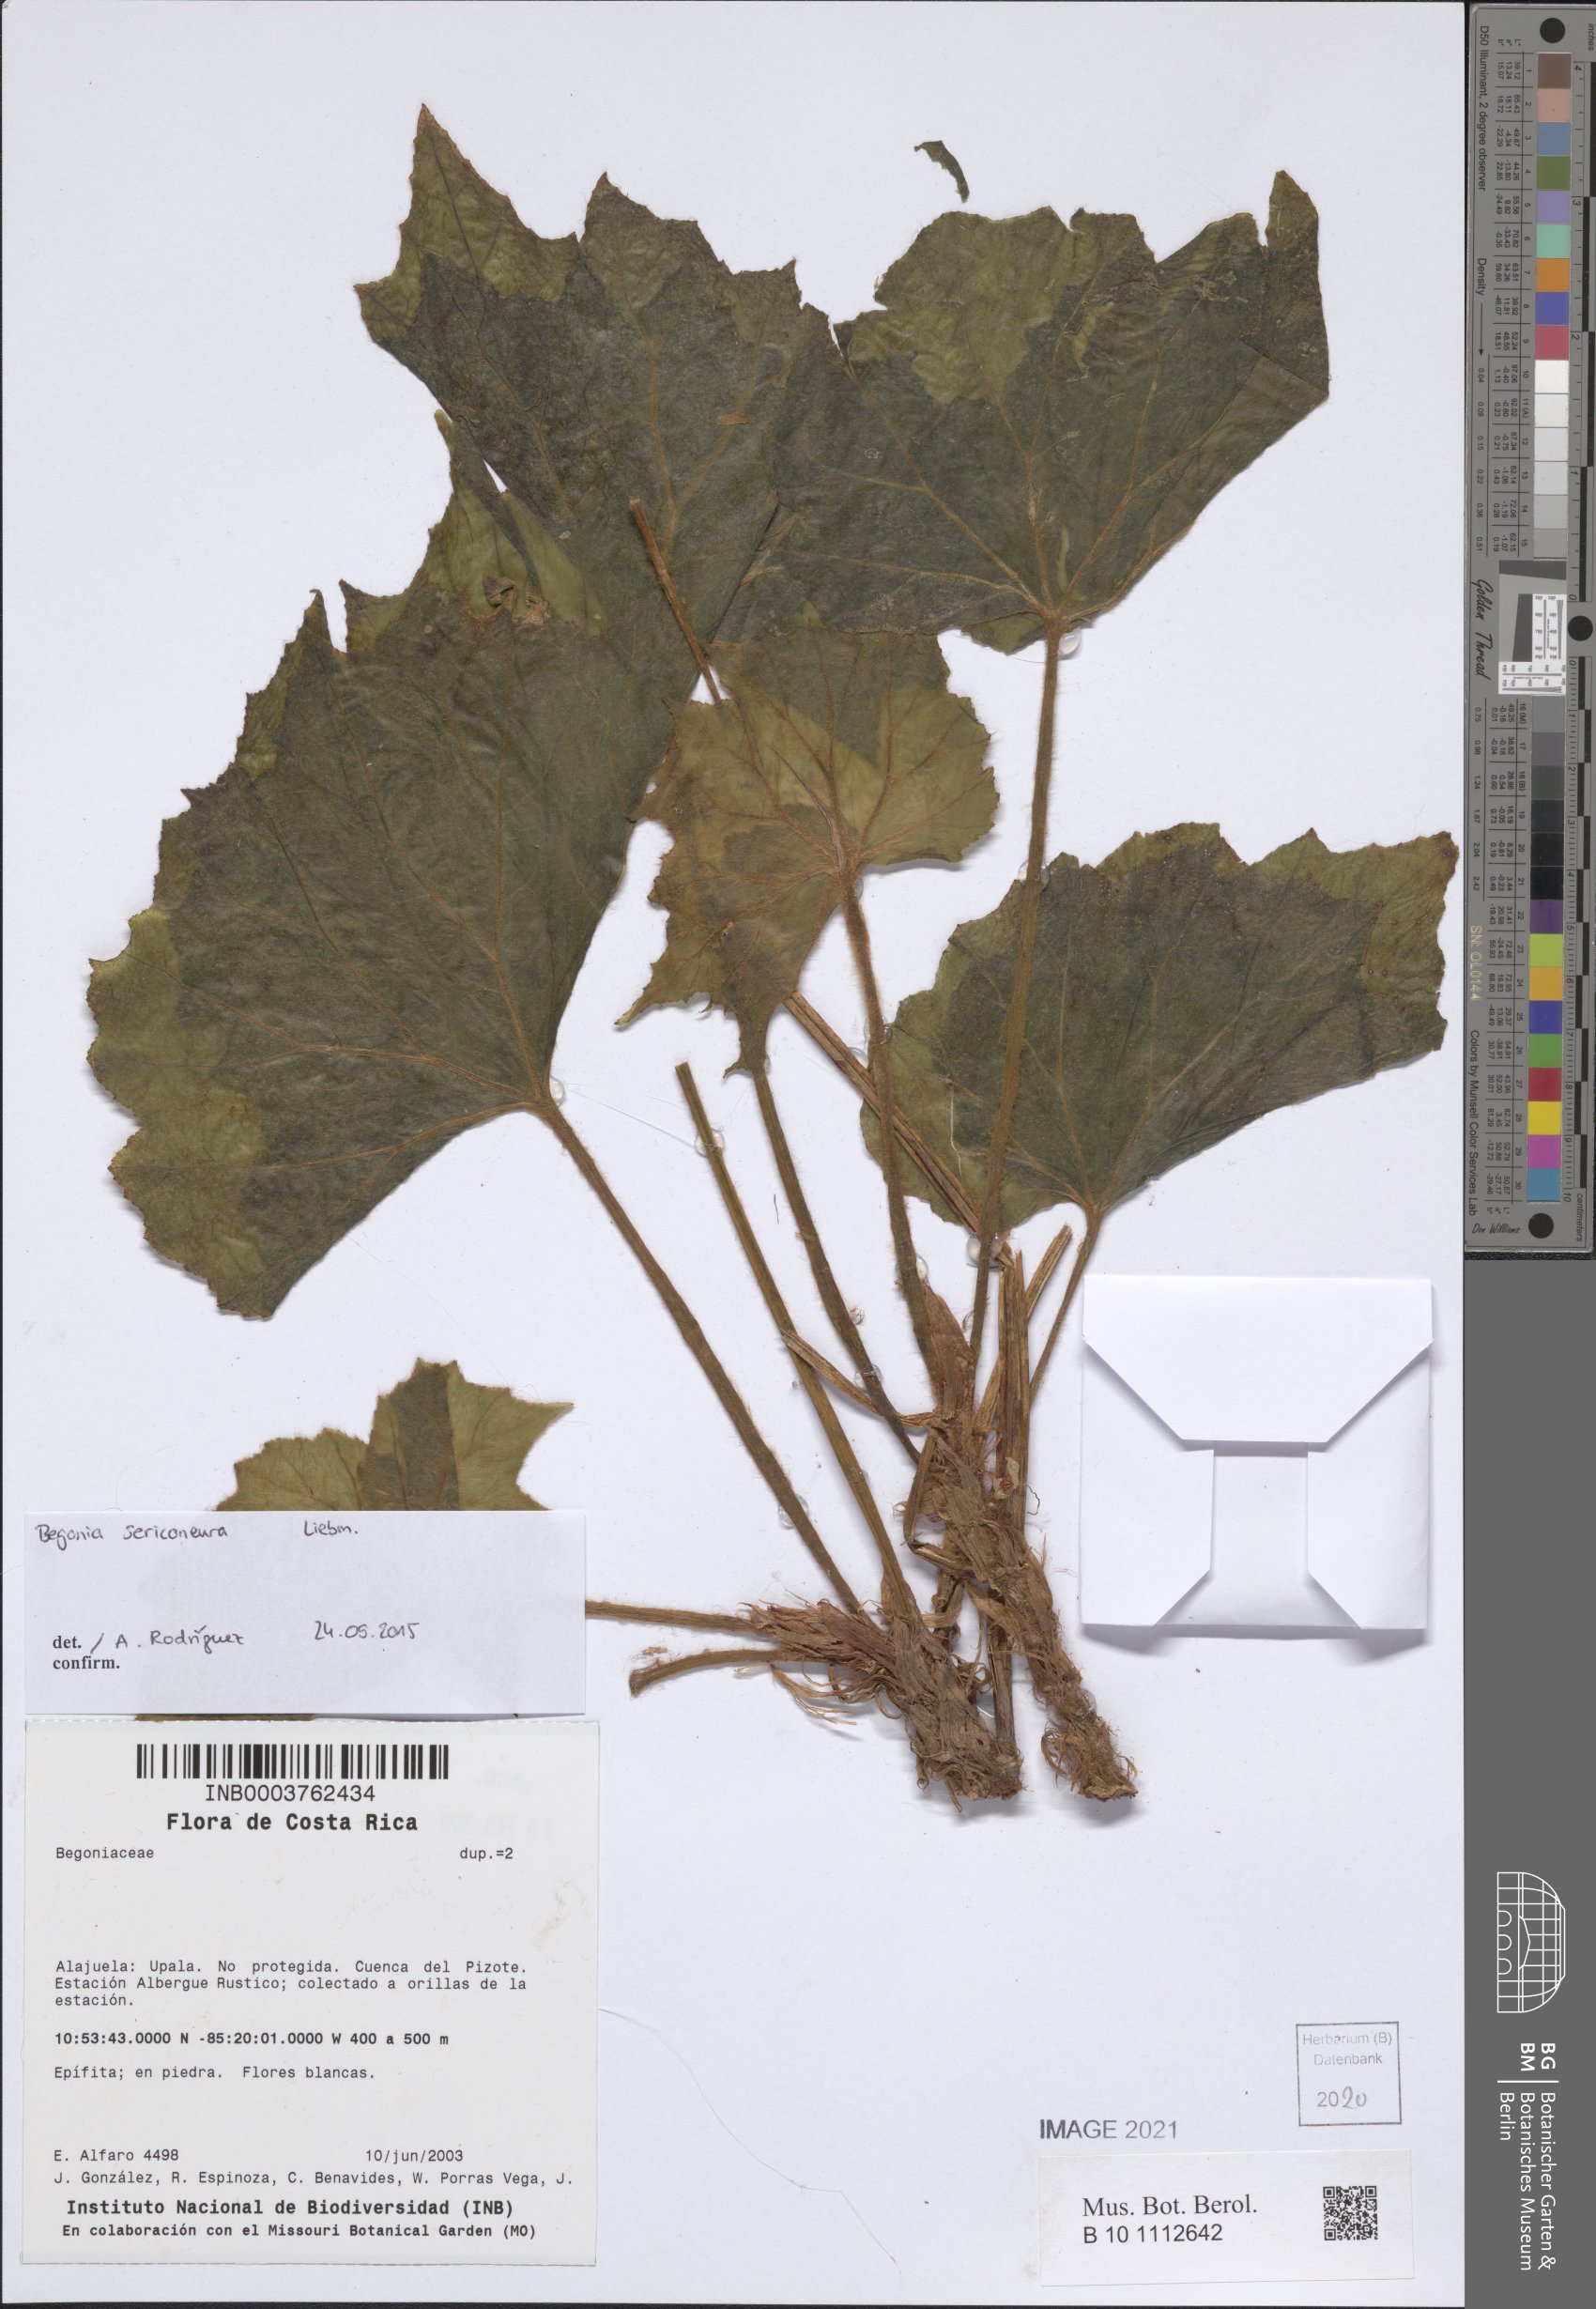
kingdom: Plantae
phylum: Tracheophyta
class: Magnoliopsida
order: Cucurbitales
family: Begoniaceae
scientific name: Begoniaceae
